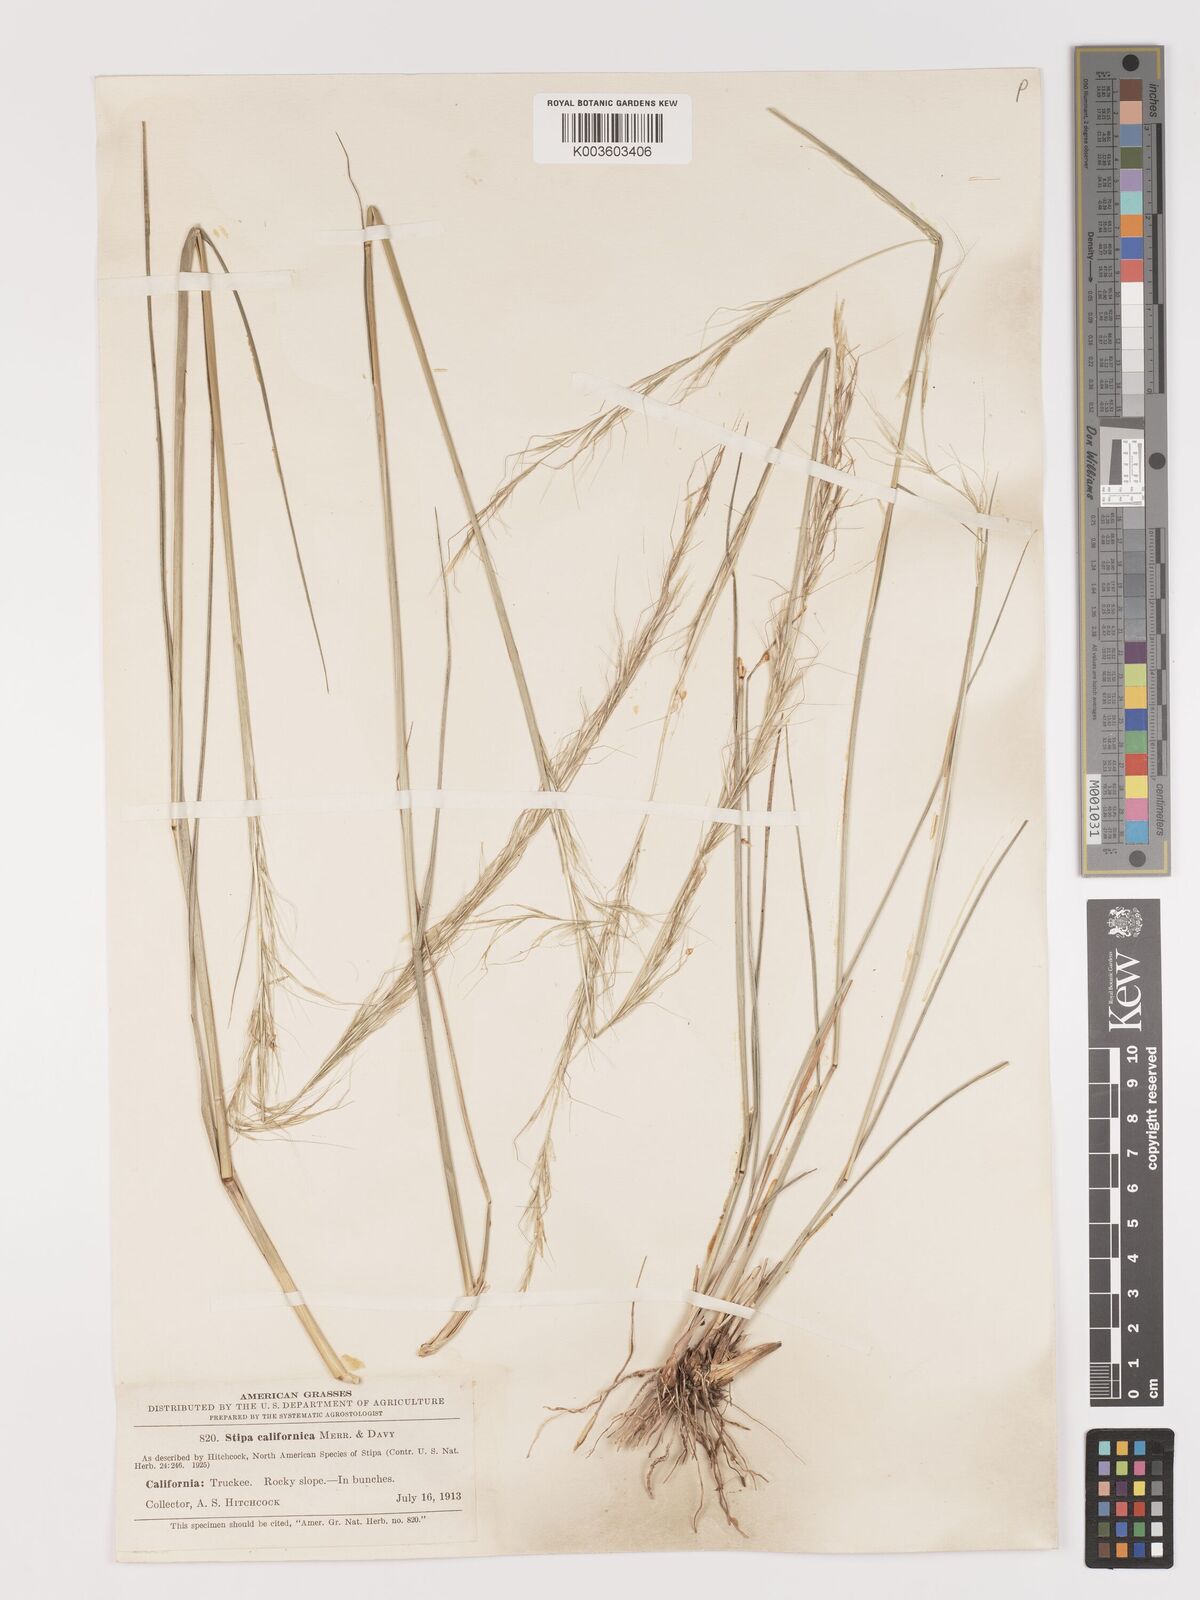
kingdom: Plantae
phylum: Tracheophyta
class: Liliopsida
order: Poales
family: Poaceae
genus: Eriocoma
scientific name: Eriocoma thurberiana
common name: Thurber's needlegrass
